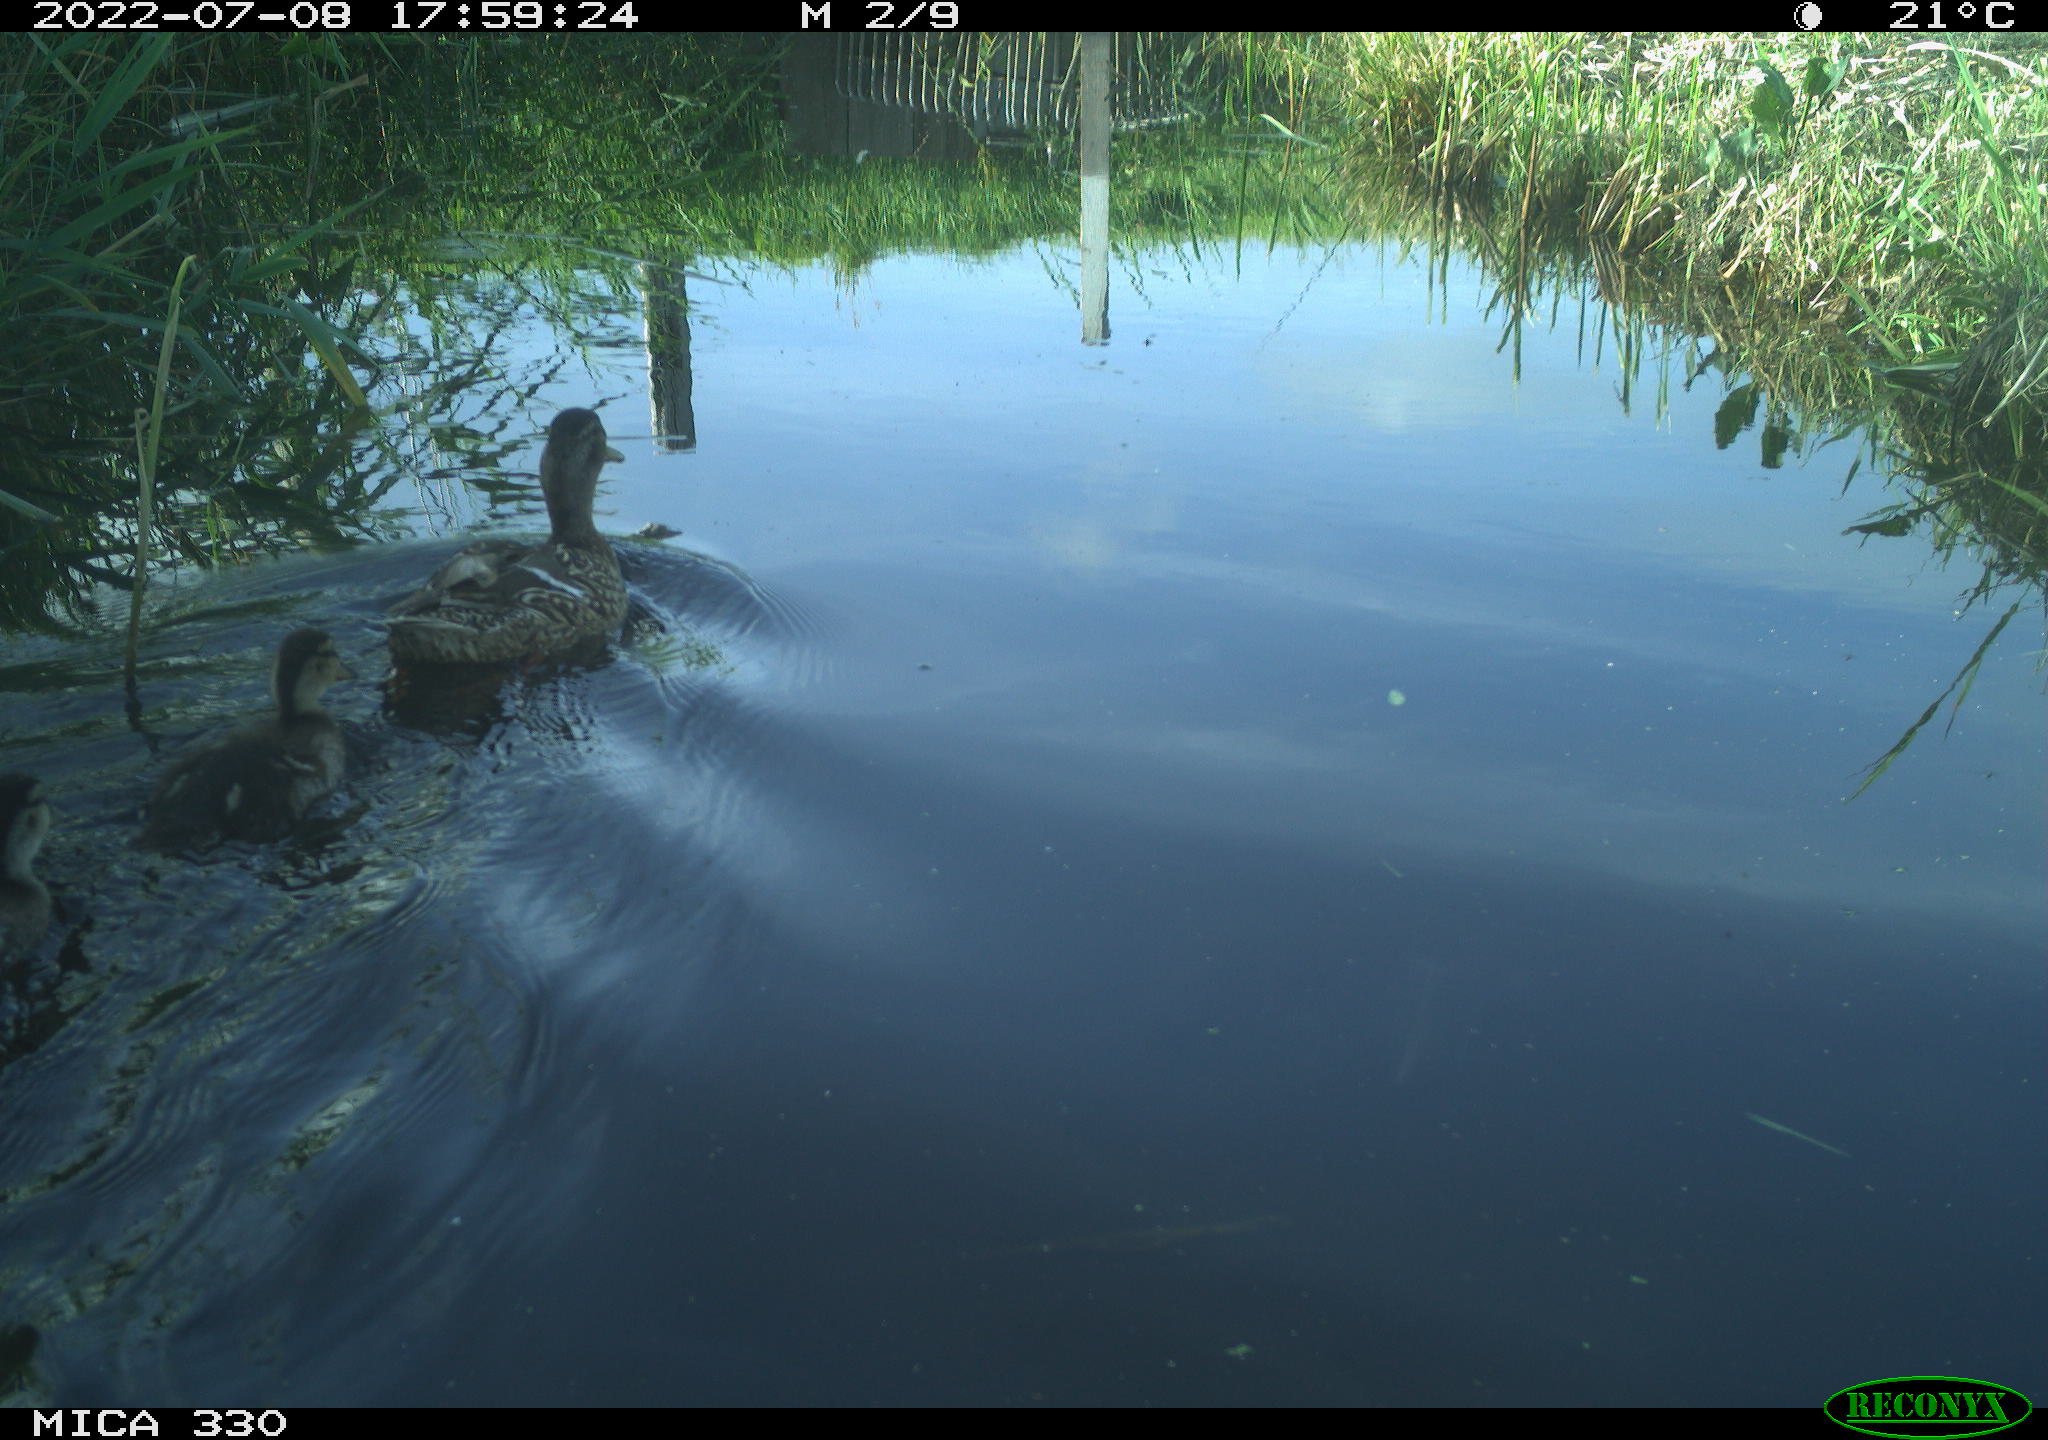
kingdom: Animalia
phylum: Chordata
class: Aves
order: Anseriformes
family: Anatidae
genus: Mareca
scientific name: Mareca strepera
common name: Gadwall
